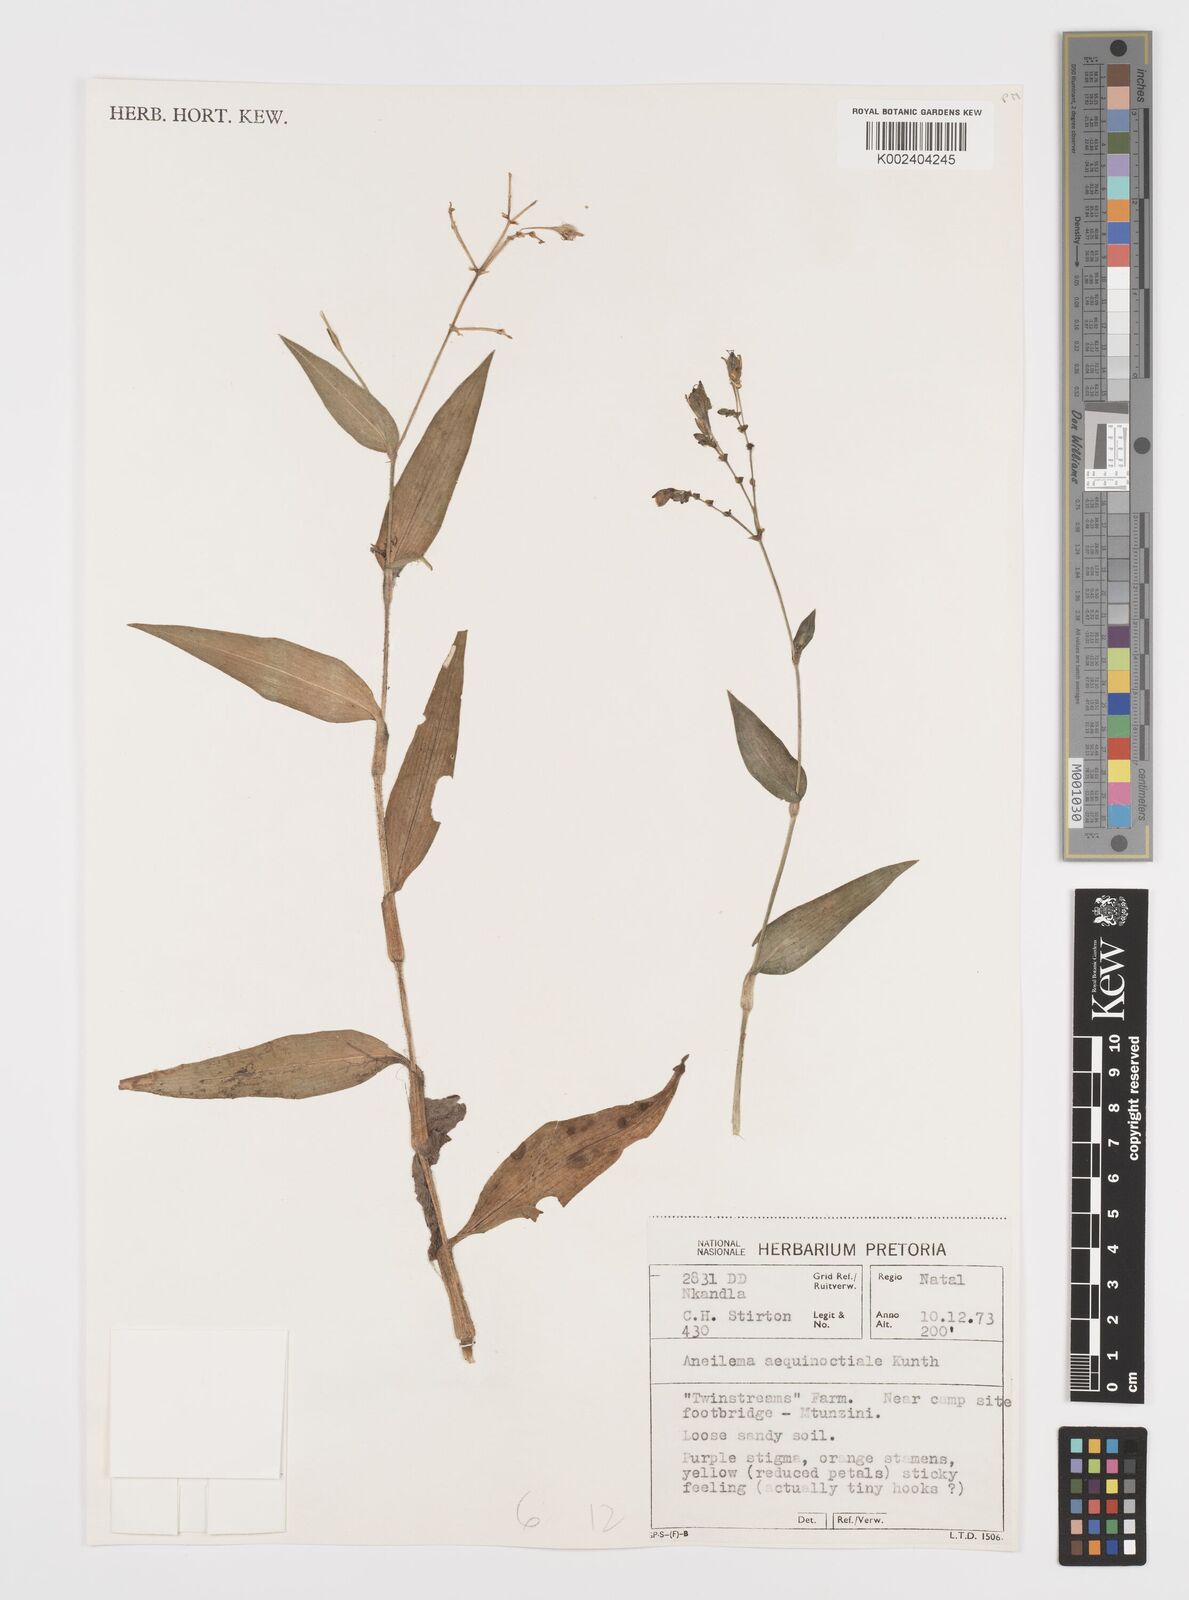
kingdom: Plantae
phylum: Tracheophyta
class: Liliopsida
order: Commelinales
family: Commelinaceae
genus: Aneilema
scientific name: Aneilema aequinoctiale
